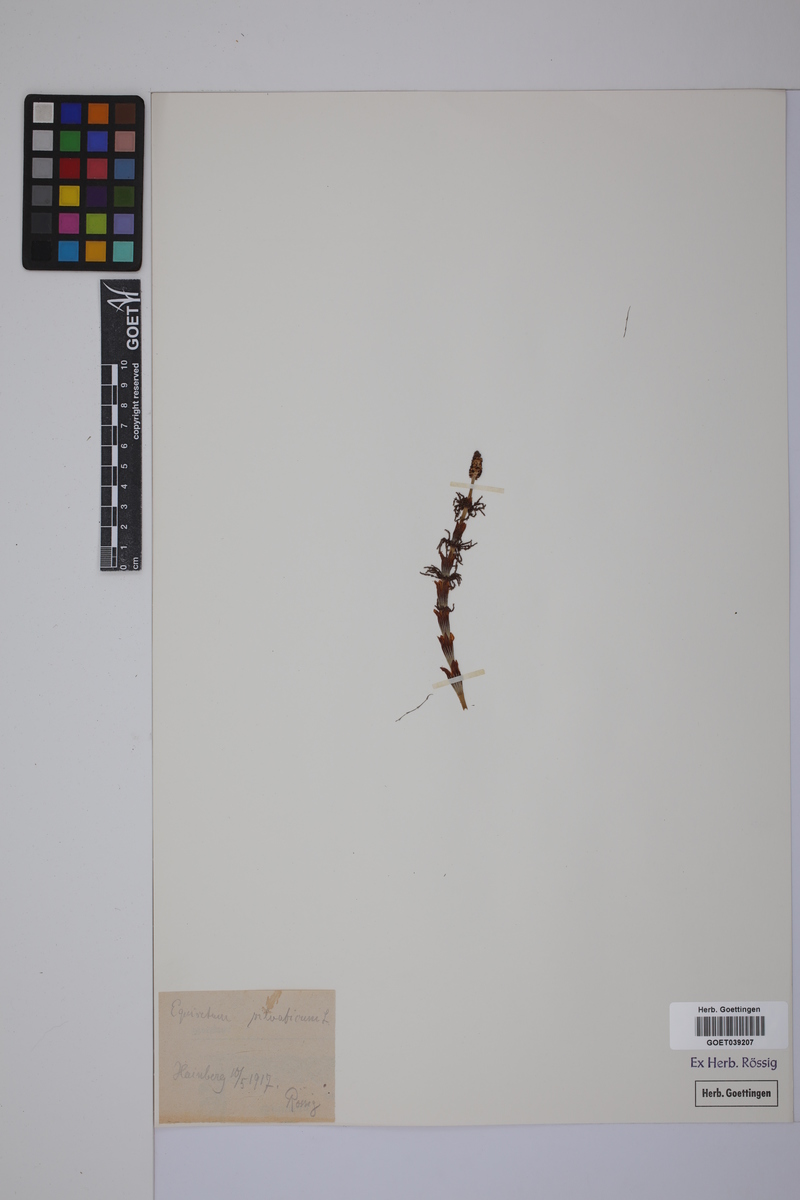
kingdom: Plantae
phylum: Tracheophyta
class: Polypodiopsida
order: Equisetales
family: Equisetaceae
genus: Equisetum
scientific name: Equisetum sylvaticum
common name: Wood horsetail
